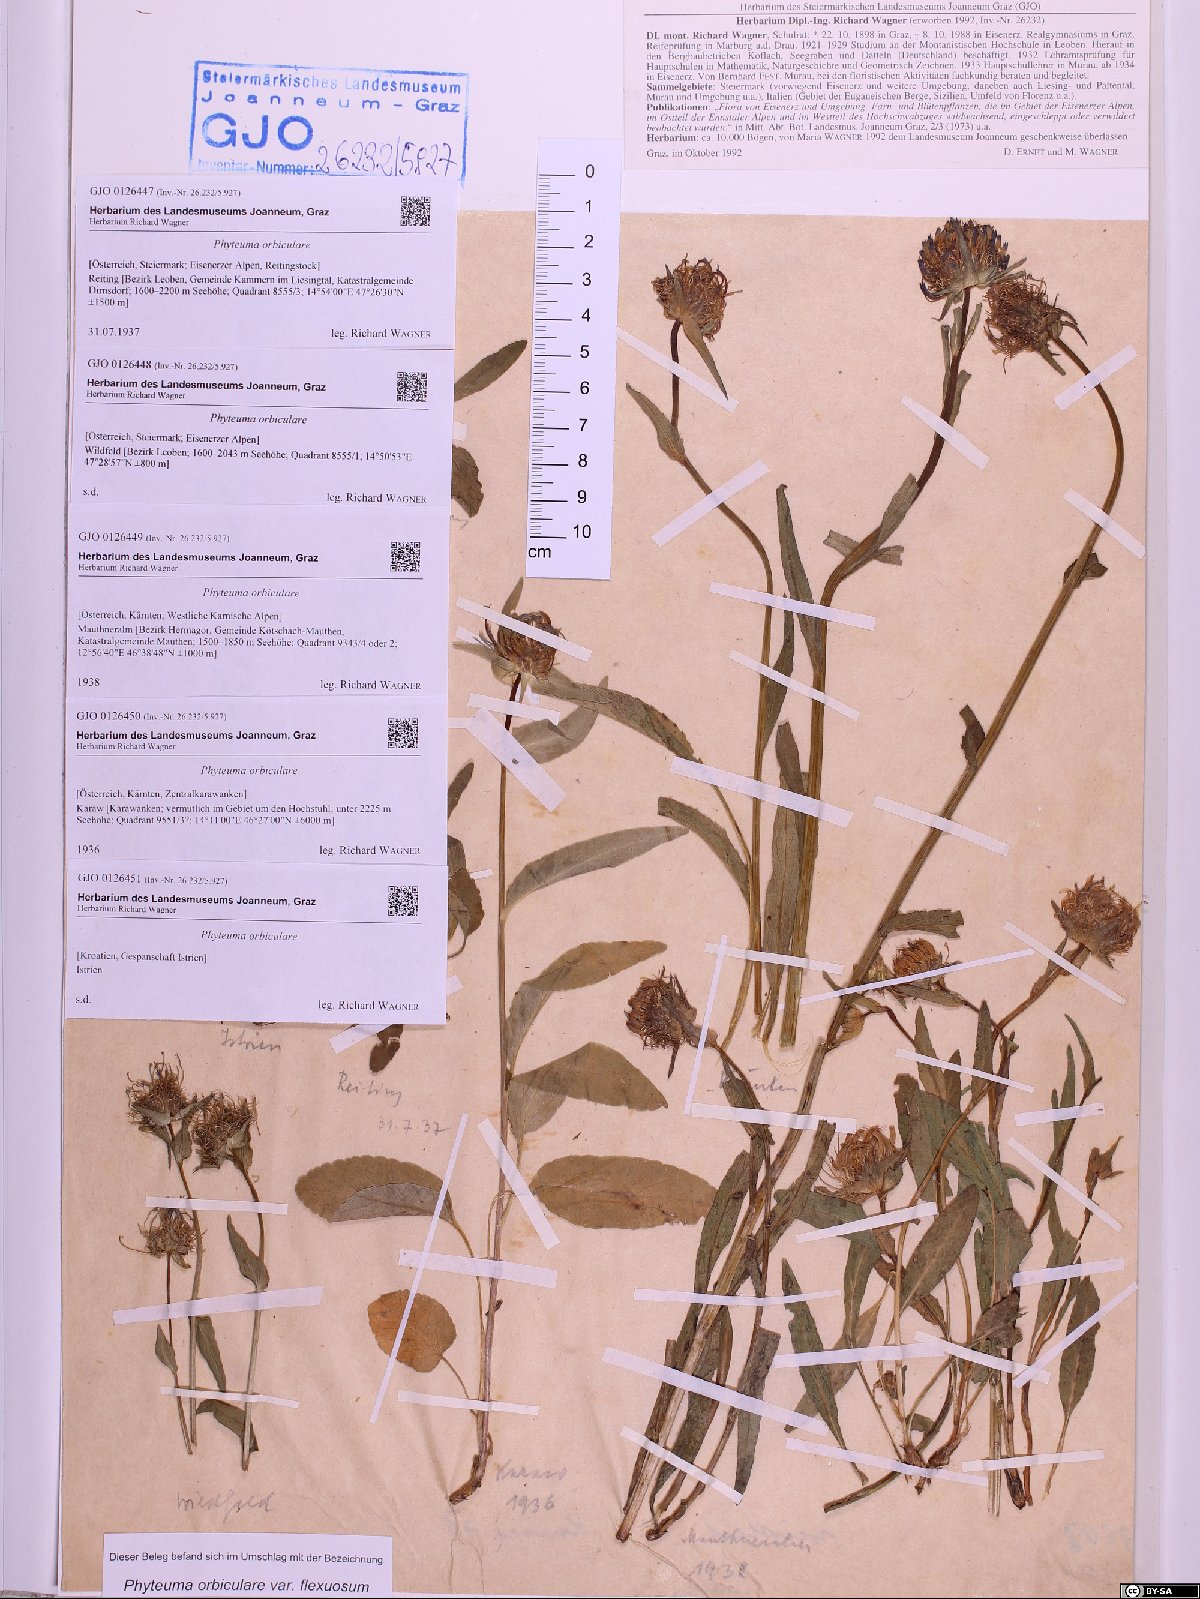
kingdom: Plantae
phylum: Tracheophyta
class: Magnoliopsida
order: Asterales
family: Campanulaceae
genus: Phyteuma
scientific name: Phyteuma orbiculare
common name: Round-headed rampion
